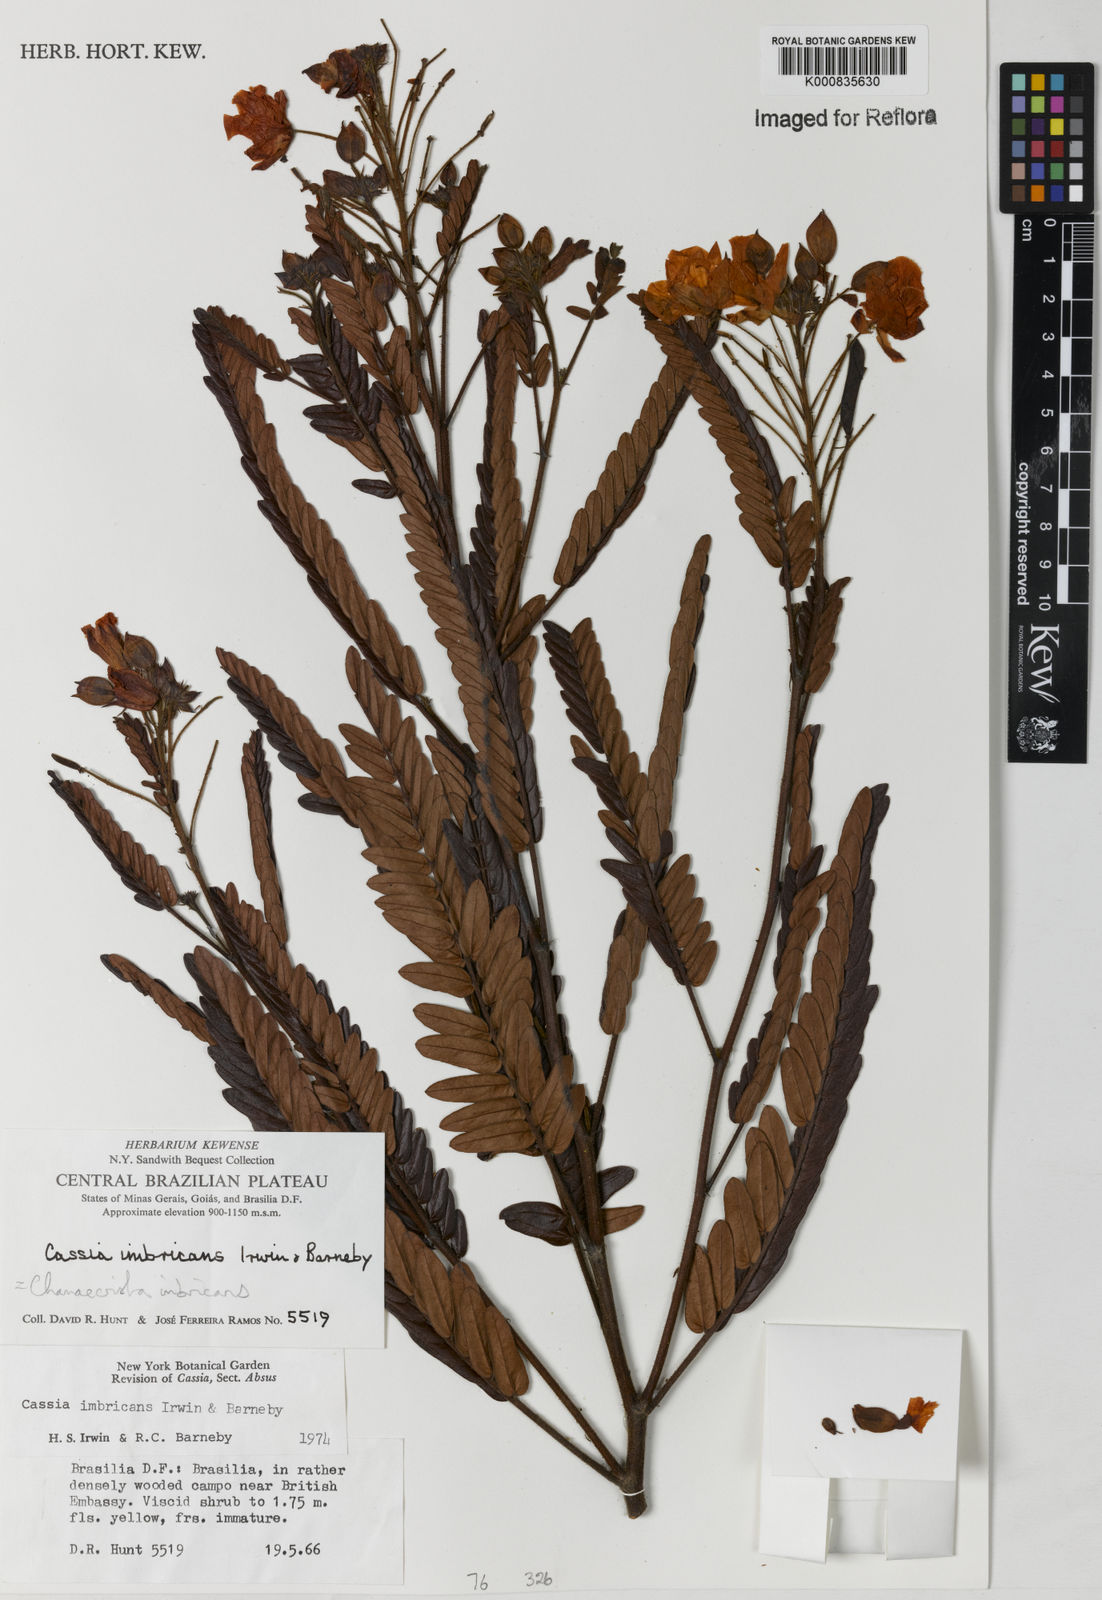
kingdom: Plantae
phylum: Tracheophyta
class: Magnoliopsida
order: Fabales
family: Fabaceae
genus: Chamaecrista
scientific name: Chamaecrista imbricans
